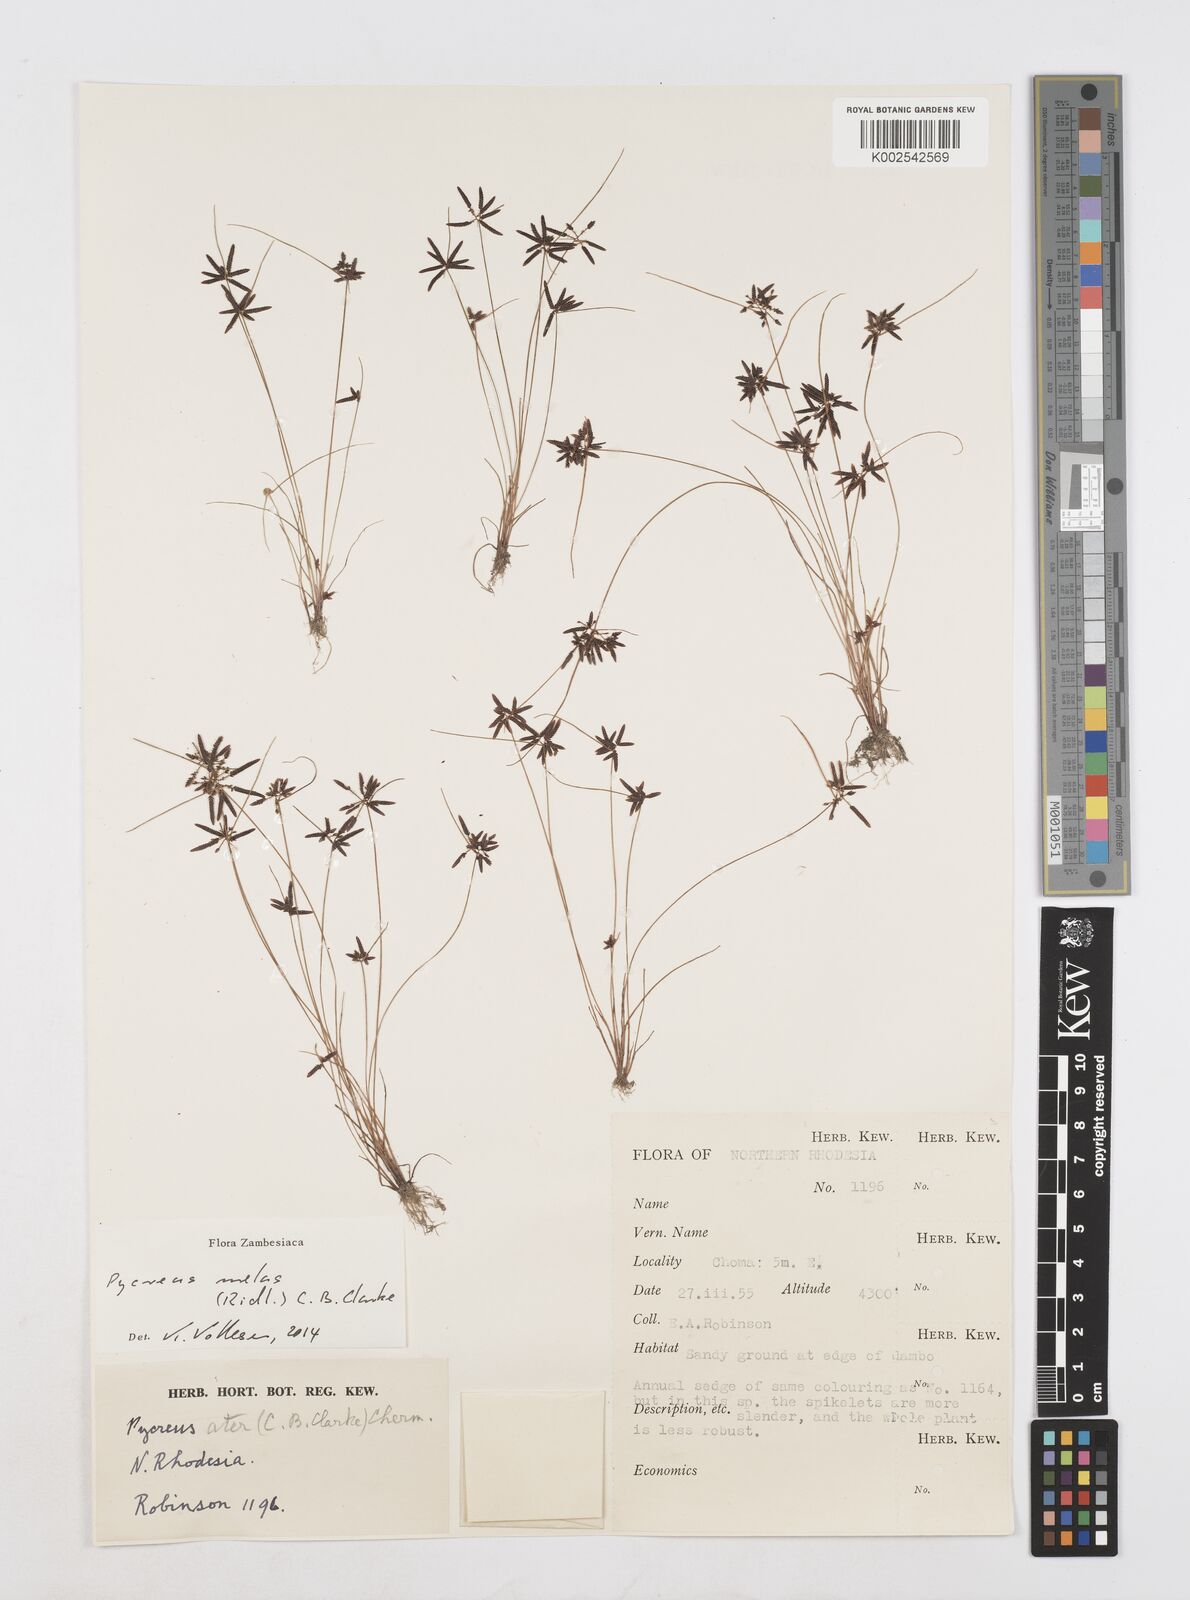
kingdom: Plantae
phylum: Tracheophyta
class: Liliopsida
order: Poales
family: Cyperaceae
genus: Cyperus
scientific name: Cyperus melas
